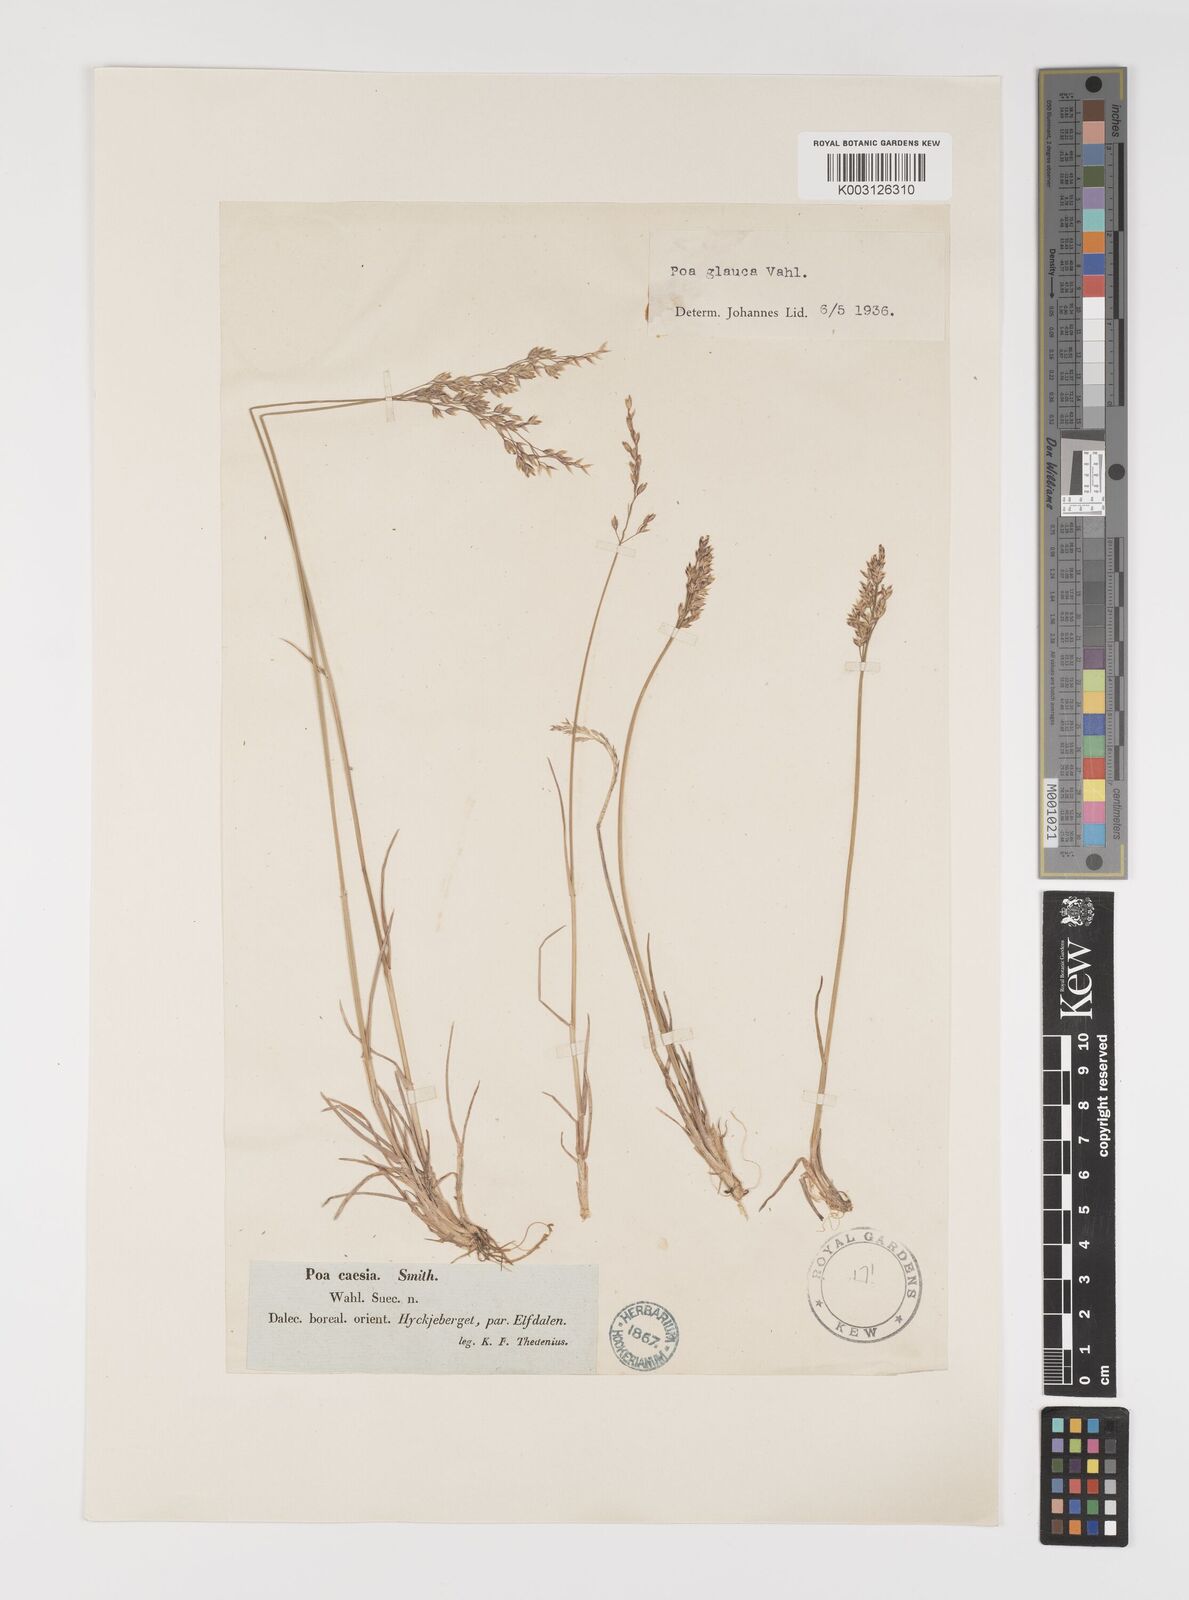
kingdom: Plantae
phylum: Tracheophyta
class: Liliopsida
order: Poales
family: Poaceae
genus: Poa
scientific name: Poa glauca
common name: Glaucous bluegrass
